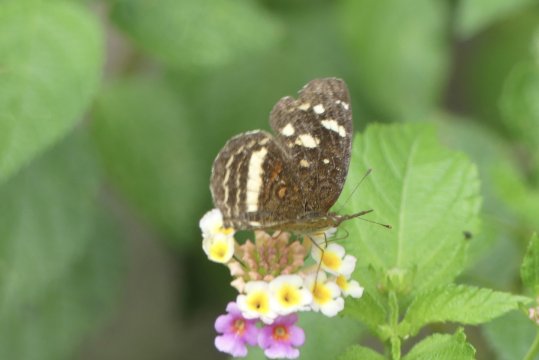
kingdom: Animalia
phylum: Arthropoda
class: Insecta
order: Lepidoptera
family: Nymphalidae
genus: Anthanassa
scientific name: Anthanassa drusilla
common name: Orange-patched Crescent
